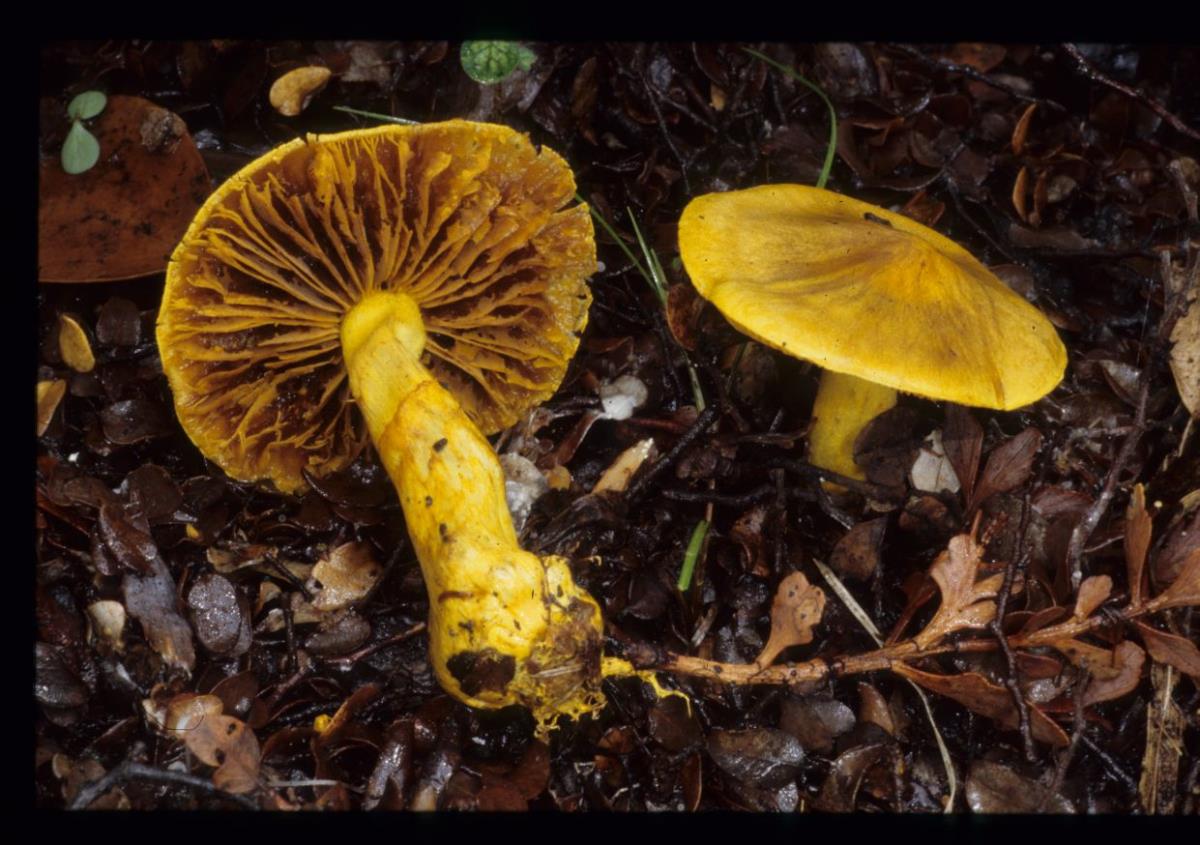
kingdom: Fungi
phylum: Basidiomycota
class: Agaricomycetes
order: Agaricales
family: Cortinariaceae
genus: Cortinarius
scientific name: Cortinarius
